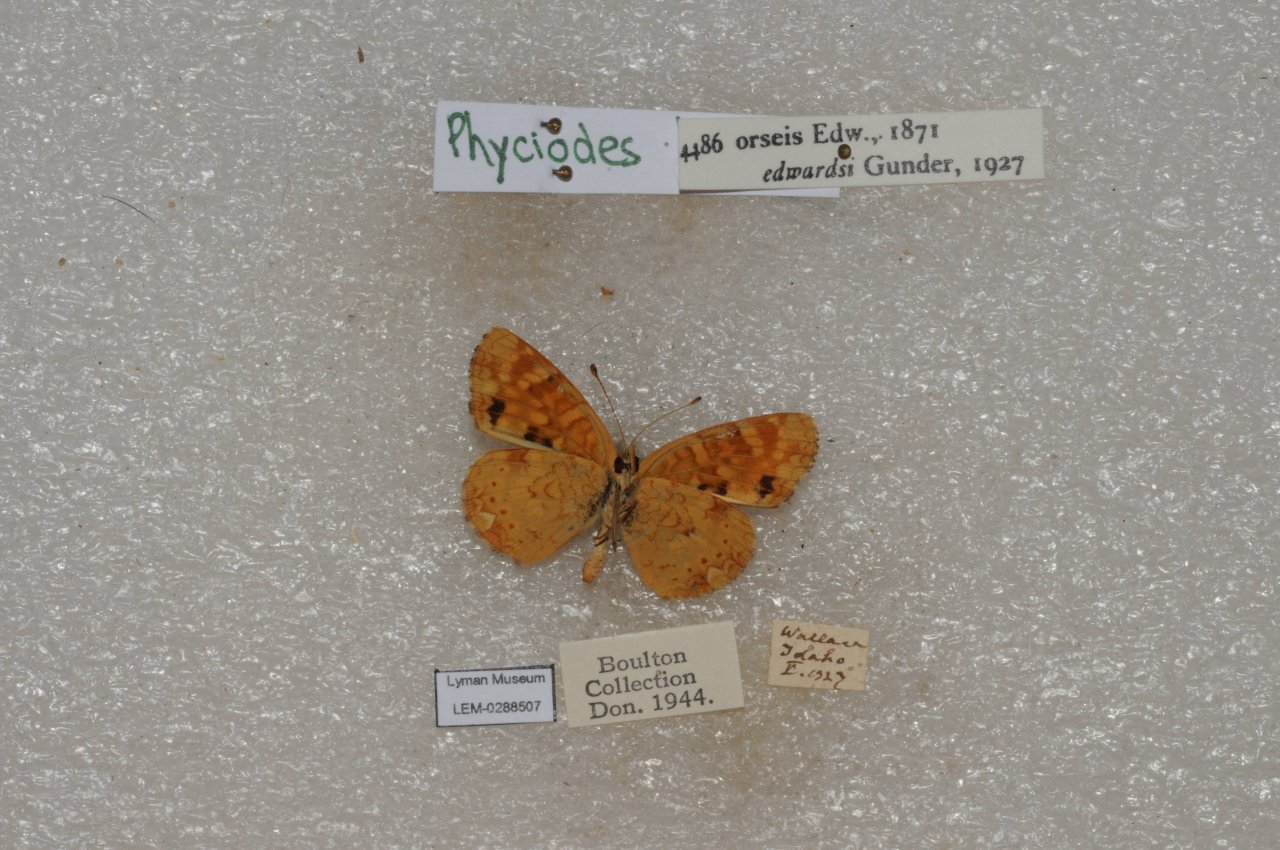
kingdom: Animalia
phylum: Arthropoda
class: Insecta
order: Lepidoptera
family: Nymphalidae
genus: Phyciodes
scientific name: Phyciodes tharos
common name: Field Crescent
